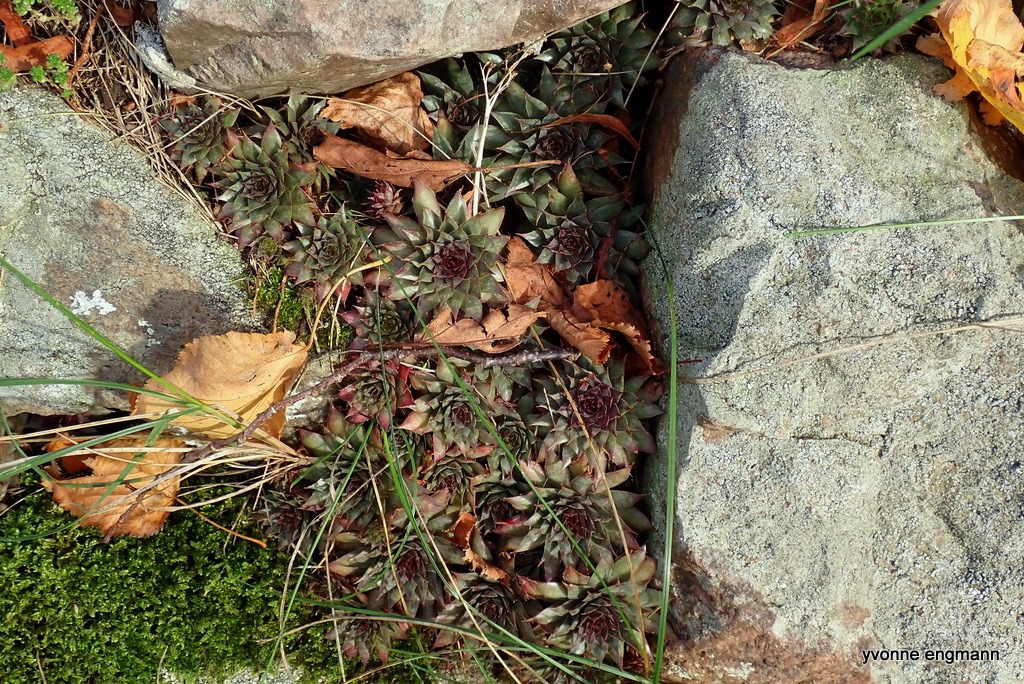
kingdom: Plantae
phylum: Tracheophyta
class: Magnoliopsida
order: Saxifragales
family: Crassulaceae
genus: Sempervivum
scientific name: Sempervivum tectorum
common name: Husløg
